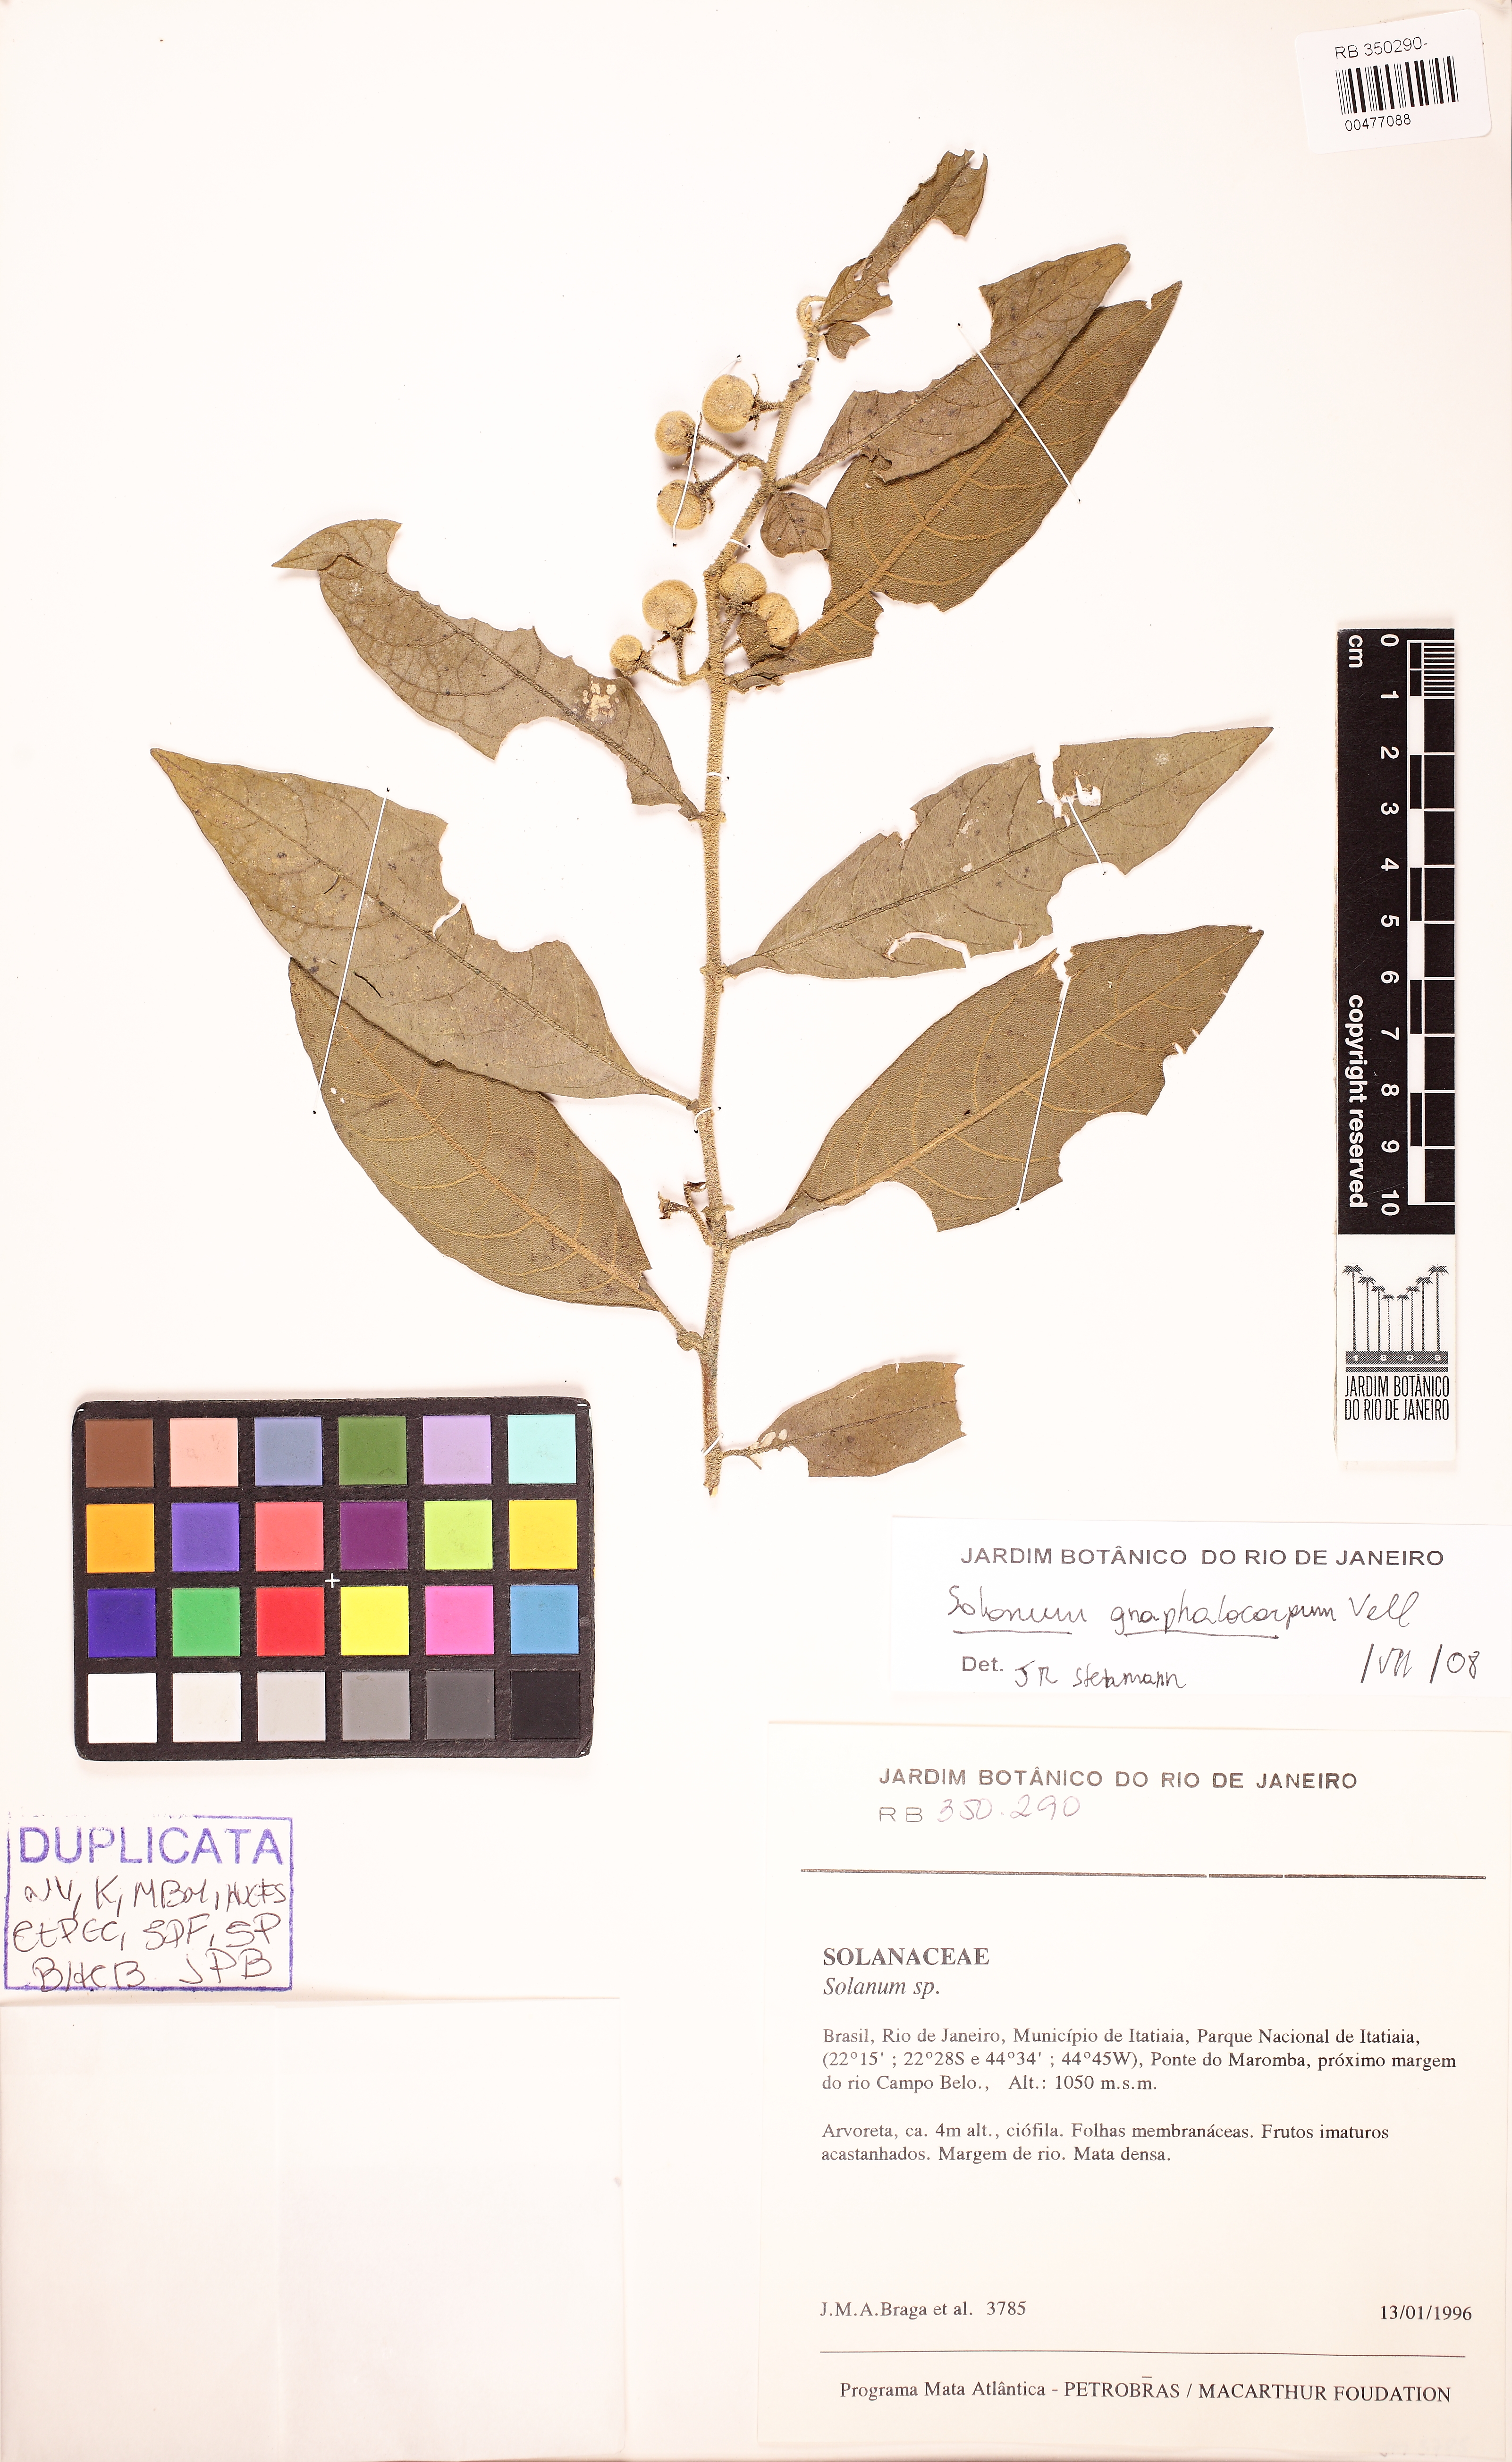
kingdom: Plantae
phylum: Tracheophyta
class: Magnoliopsida
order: Solanales
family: Solanaceae
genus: Solanum
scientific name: Solanum gnaphalocarpum
